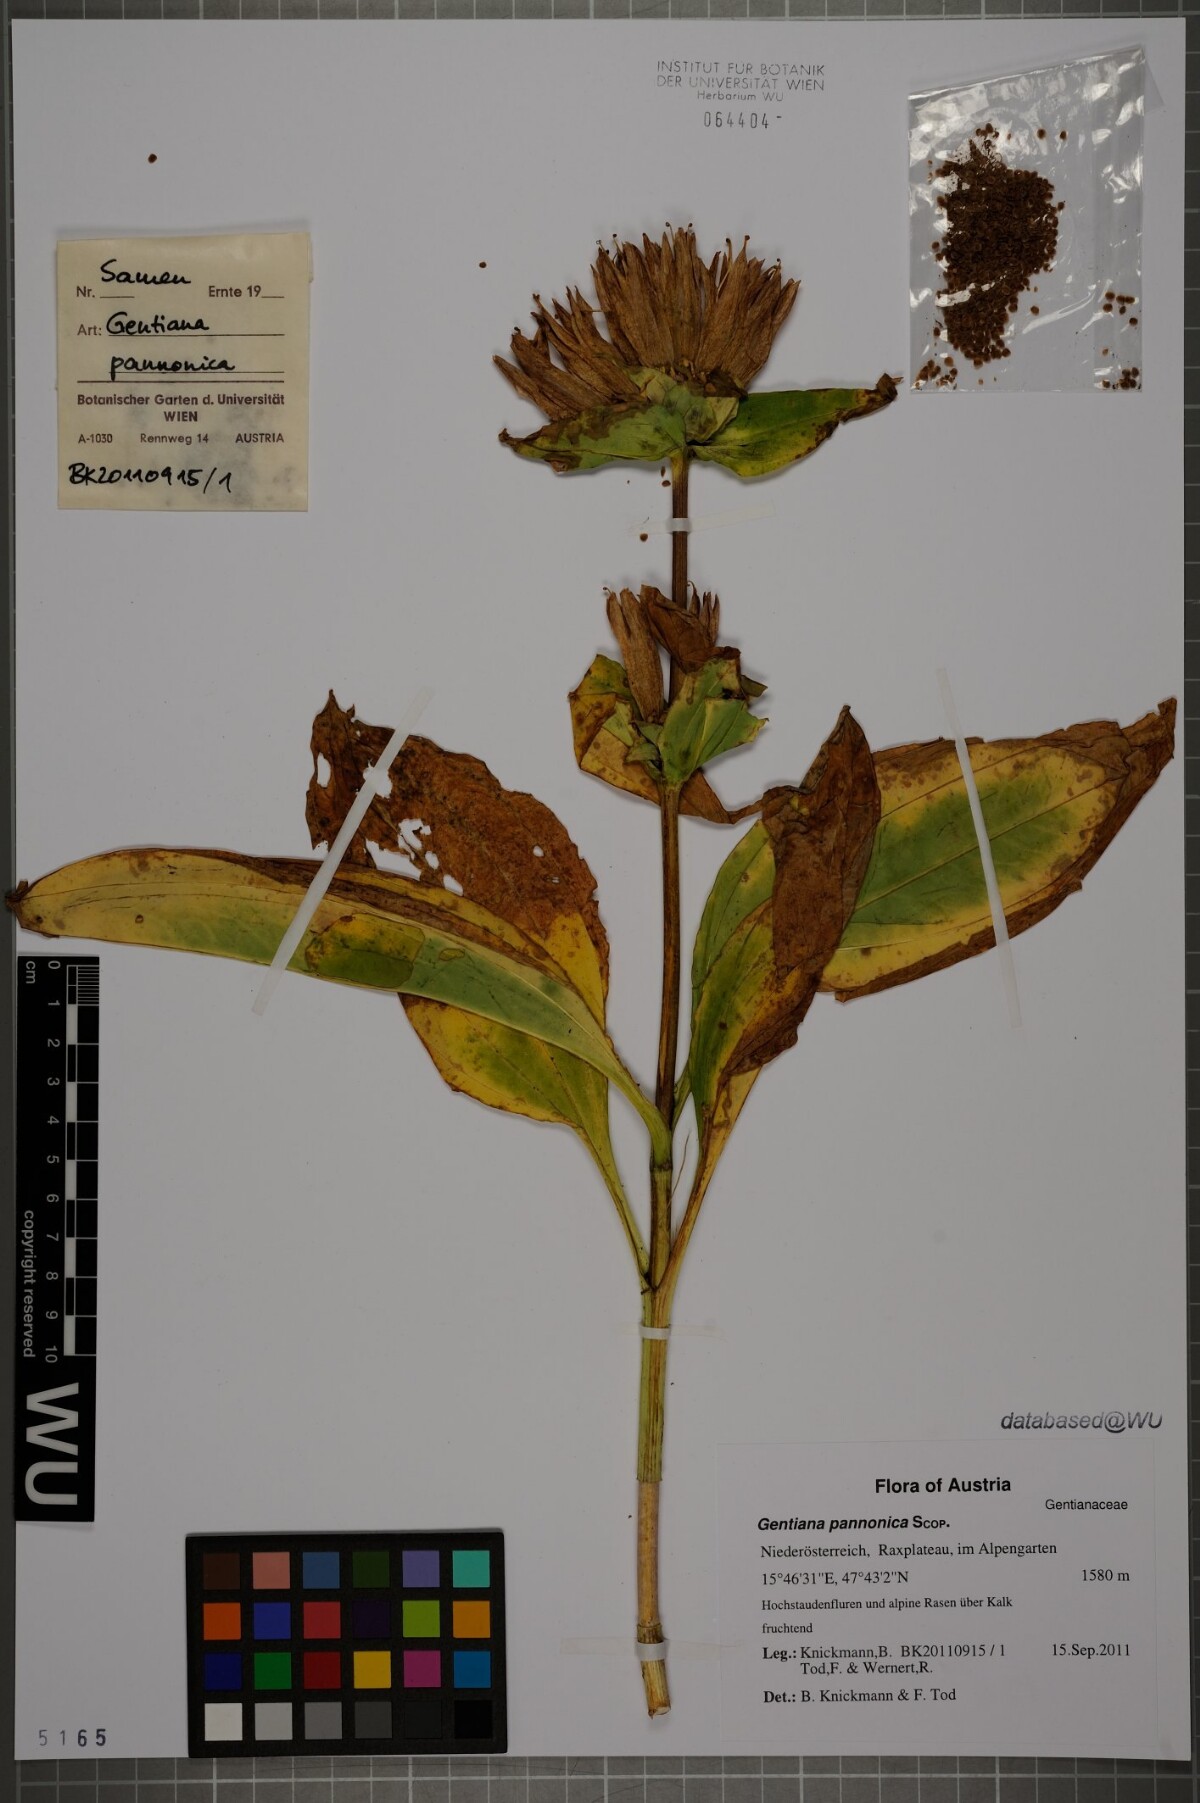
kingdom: Plantae
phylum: Tracheophyta
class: Magnoliopsida
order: Gentianales
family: Gentianaceae
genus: Gentiana
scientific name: Gentiana pannonica
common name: Hungarian gentian
